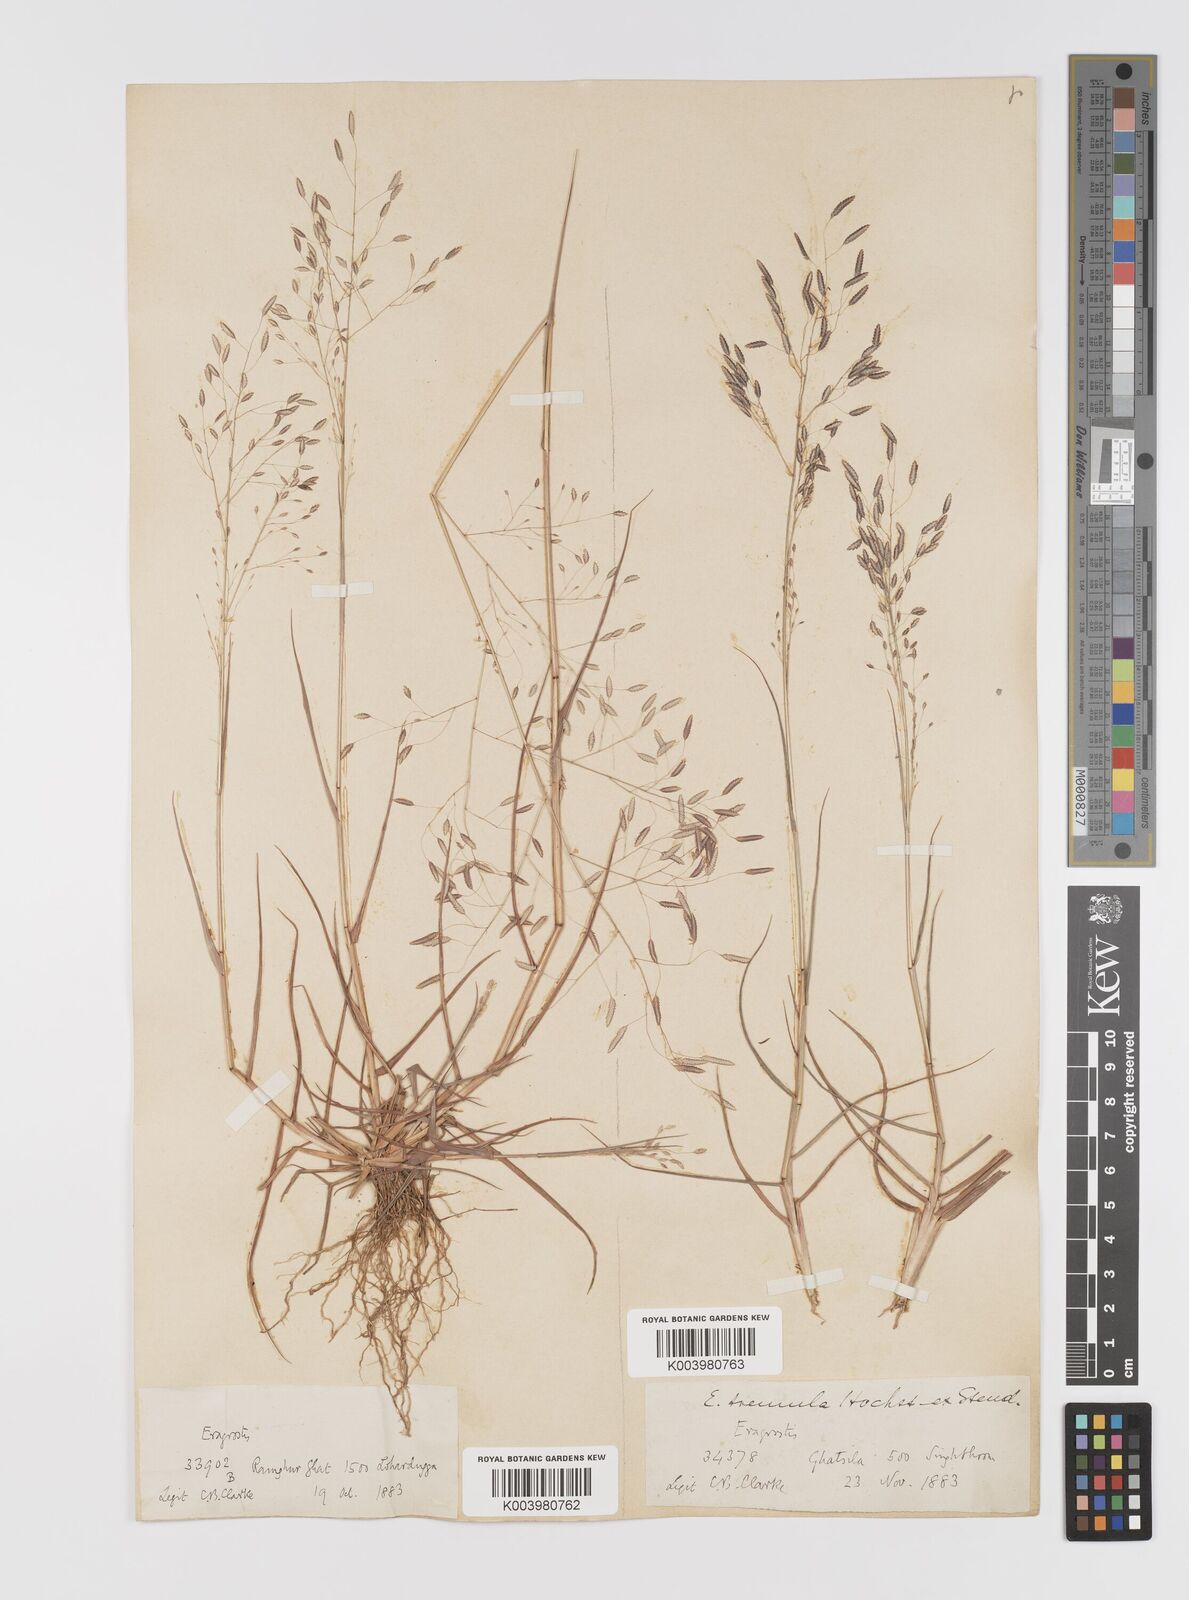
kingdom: Plantae
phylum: Tracheophyta
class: Liliopsida
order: Poales
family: Poaceae
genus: Eragrostis
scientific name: Eragrostis tremula
